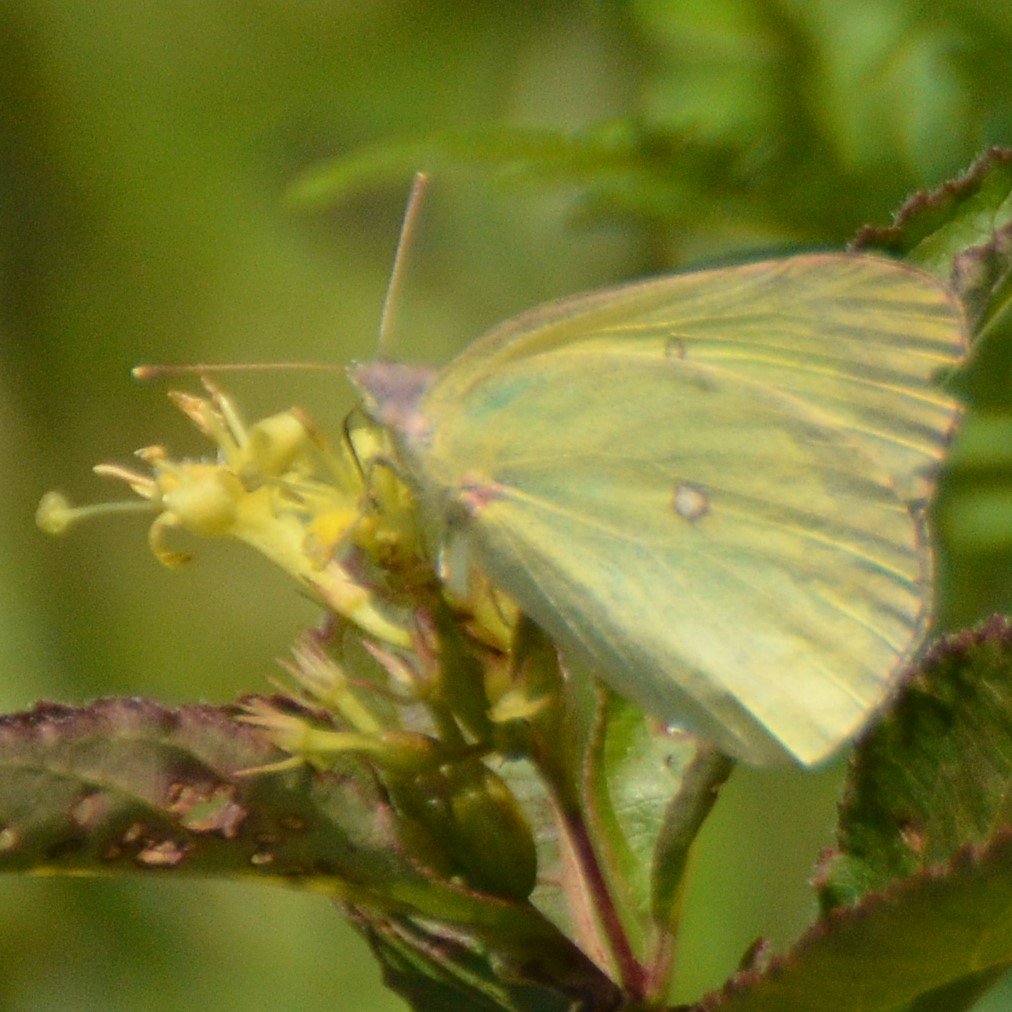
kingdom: Animalia
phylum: Arthropoda
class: Insecta
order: Lepidoptera
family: Pieridae
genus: Colias
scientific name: Colias interior
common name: Pink-edged Sulphur
